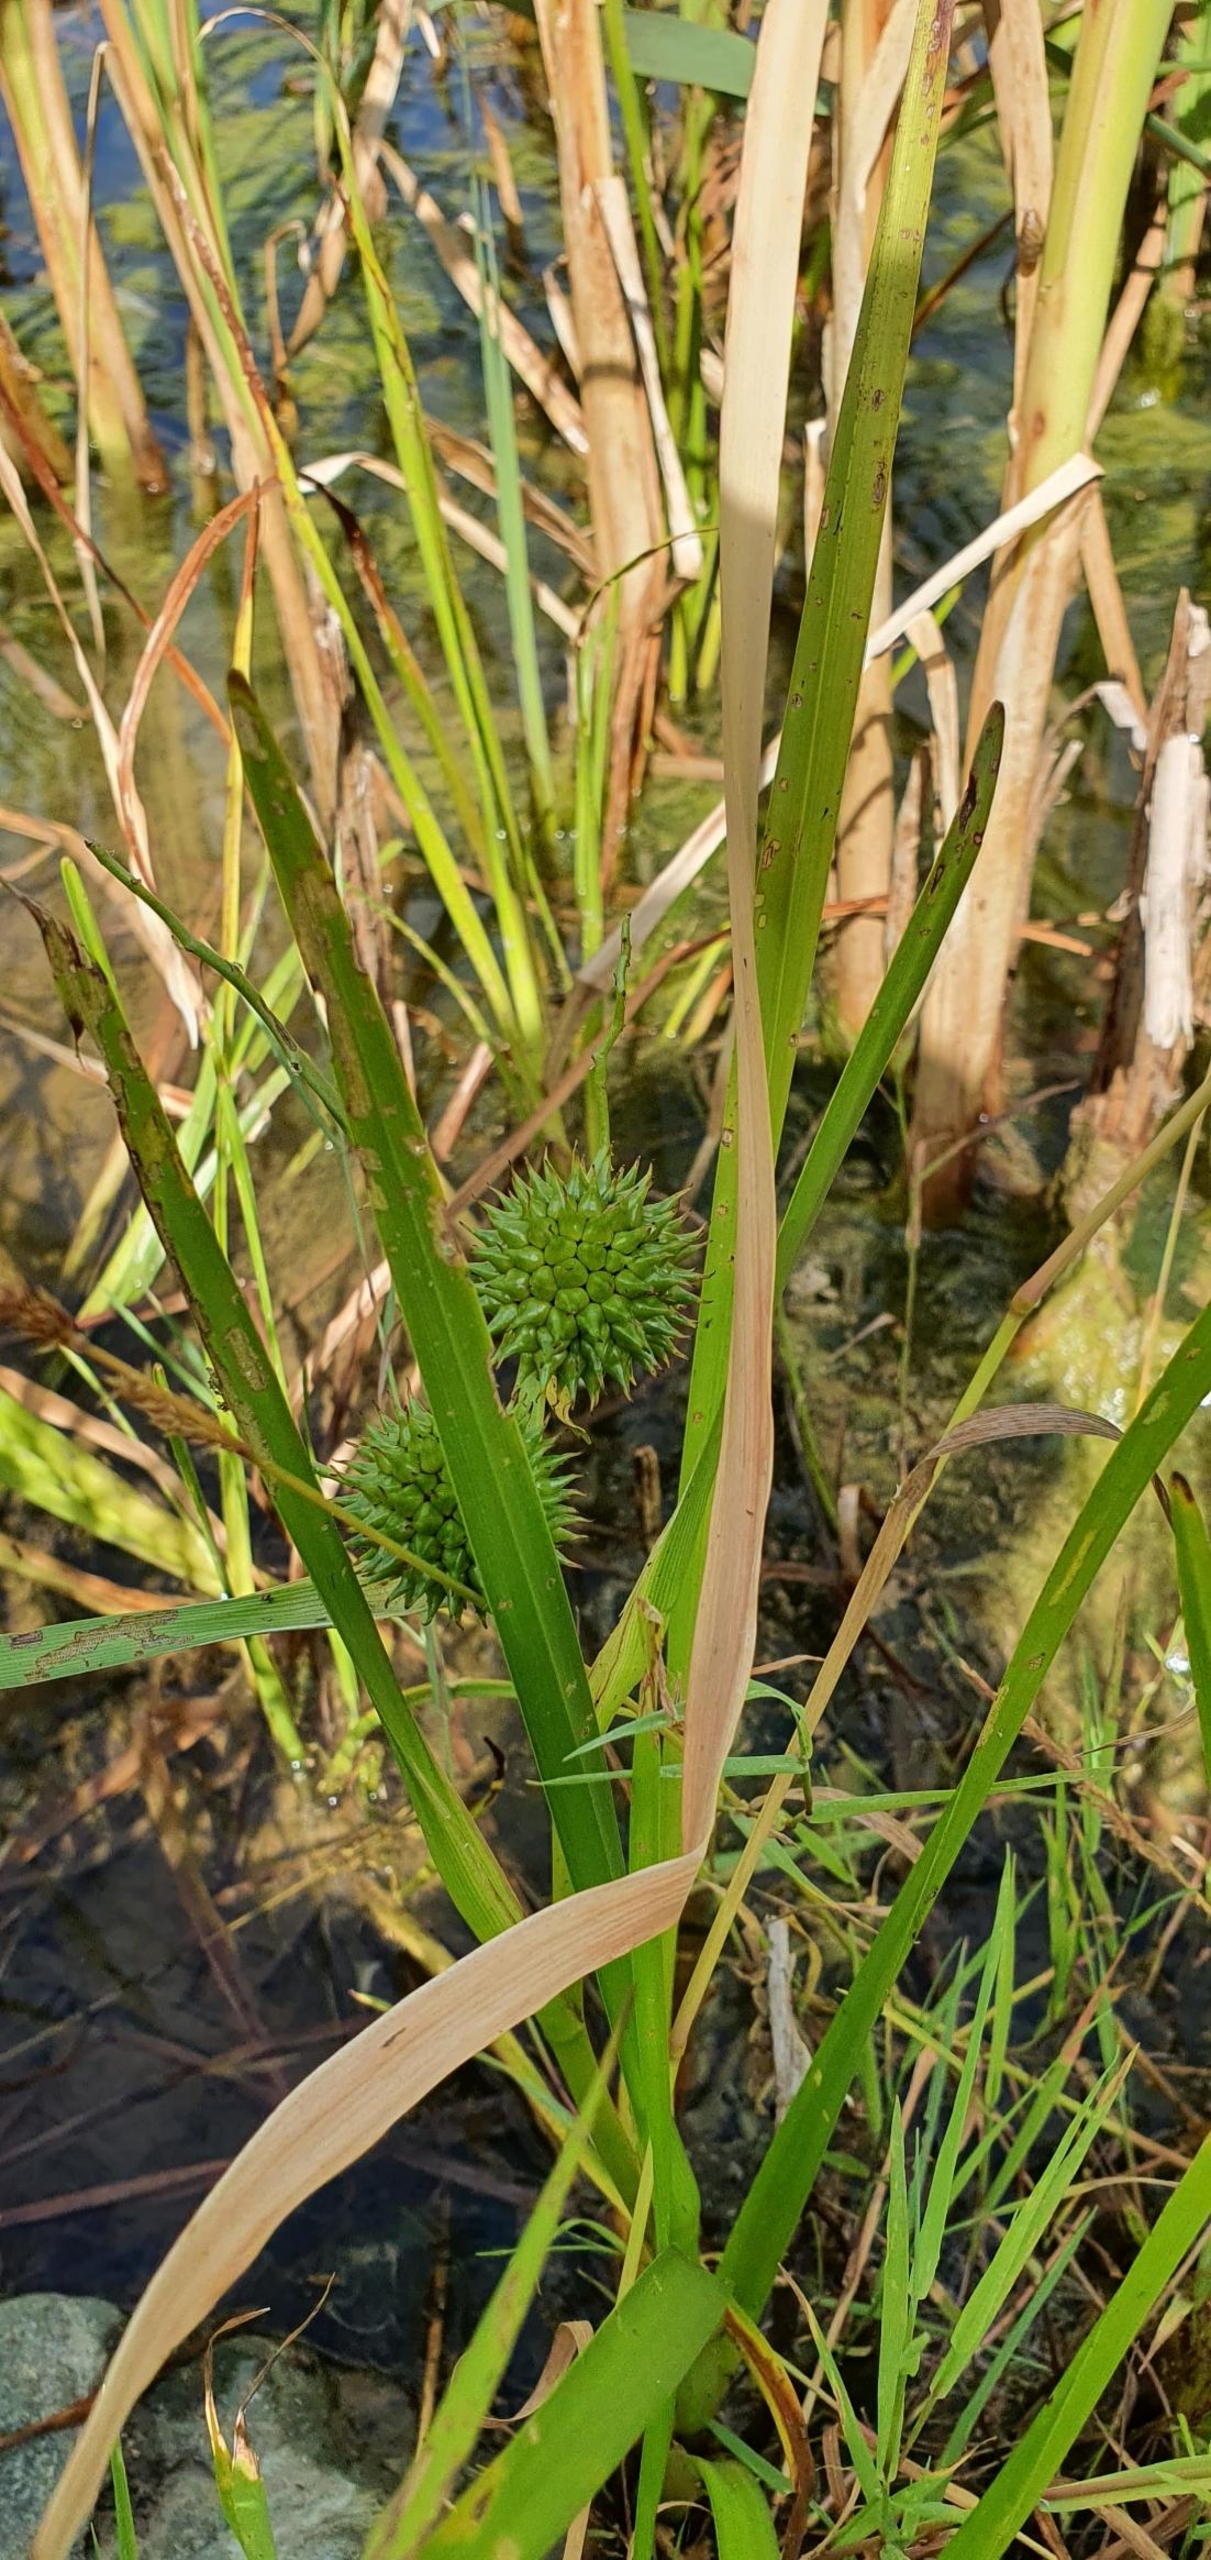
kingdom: Plantae
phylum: Tracheophyta
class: Liliopsida
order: Poales
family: Typhaceae
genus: Sparganium
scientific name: Sparganium erectum
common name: Grenet pindsvineknop
